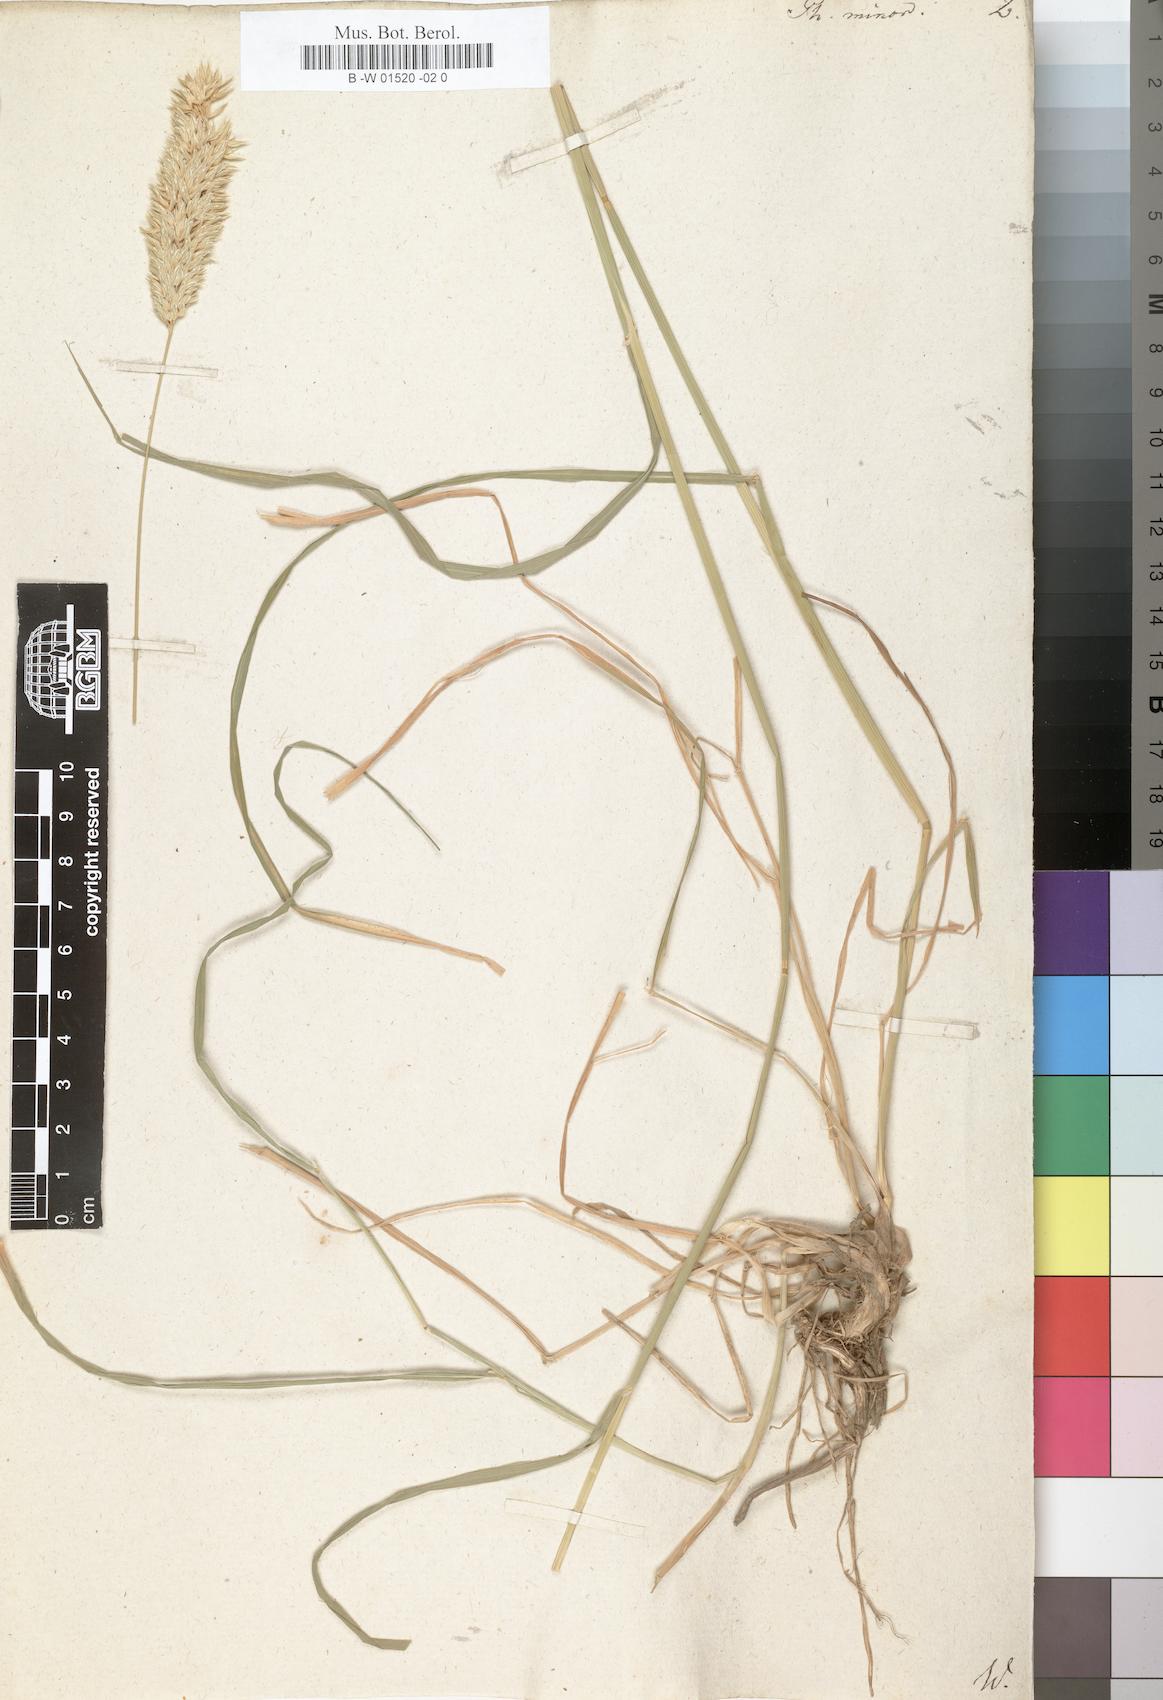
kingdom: Plantae
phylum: Tracheophyta
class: Liliopsida
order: Poales
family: Poaceae
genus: Phalaris
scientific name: Phalaris minor
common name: Littleseed canarygrass
